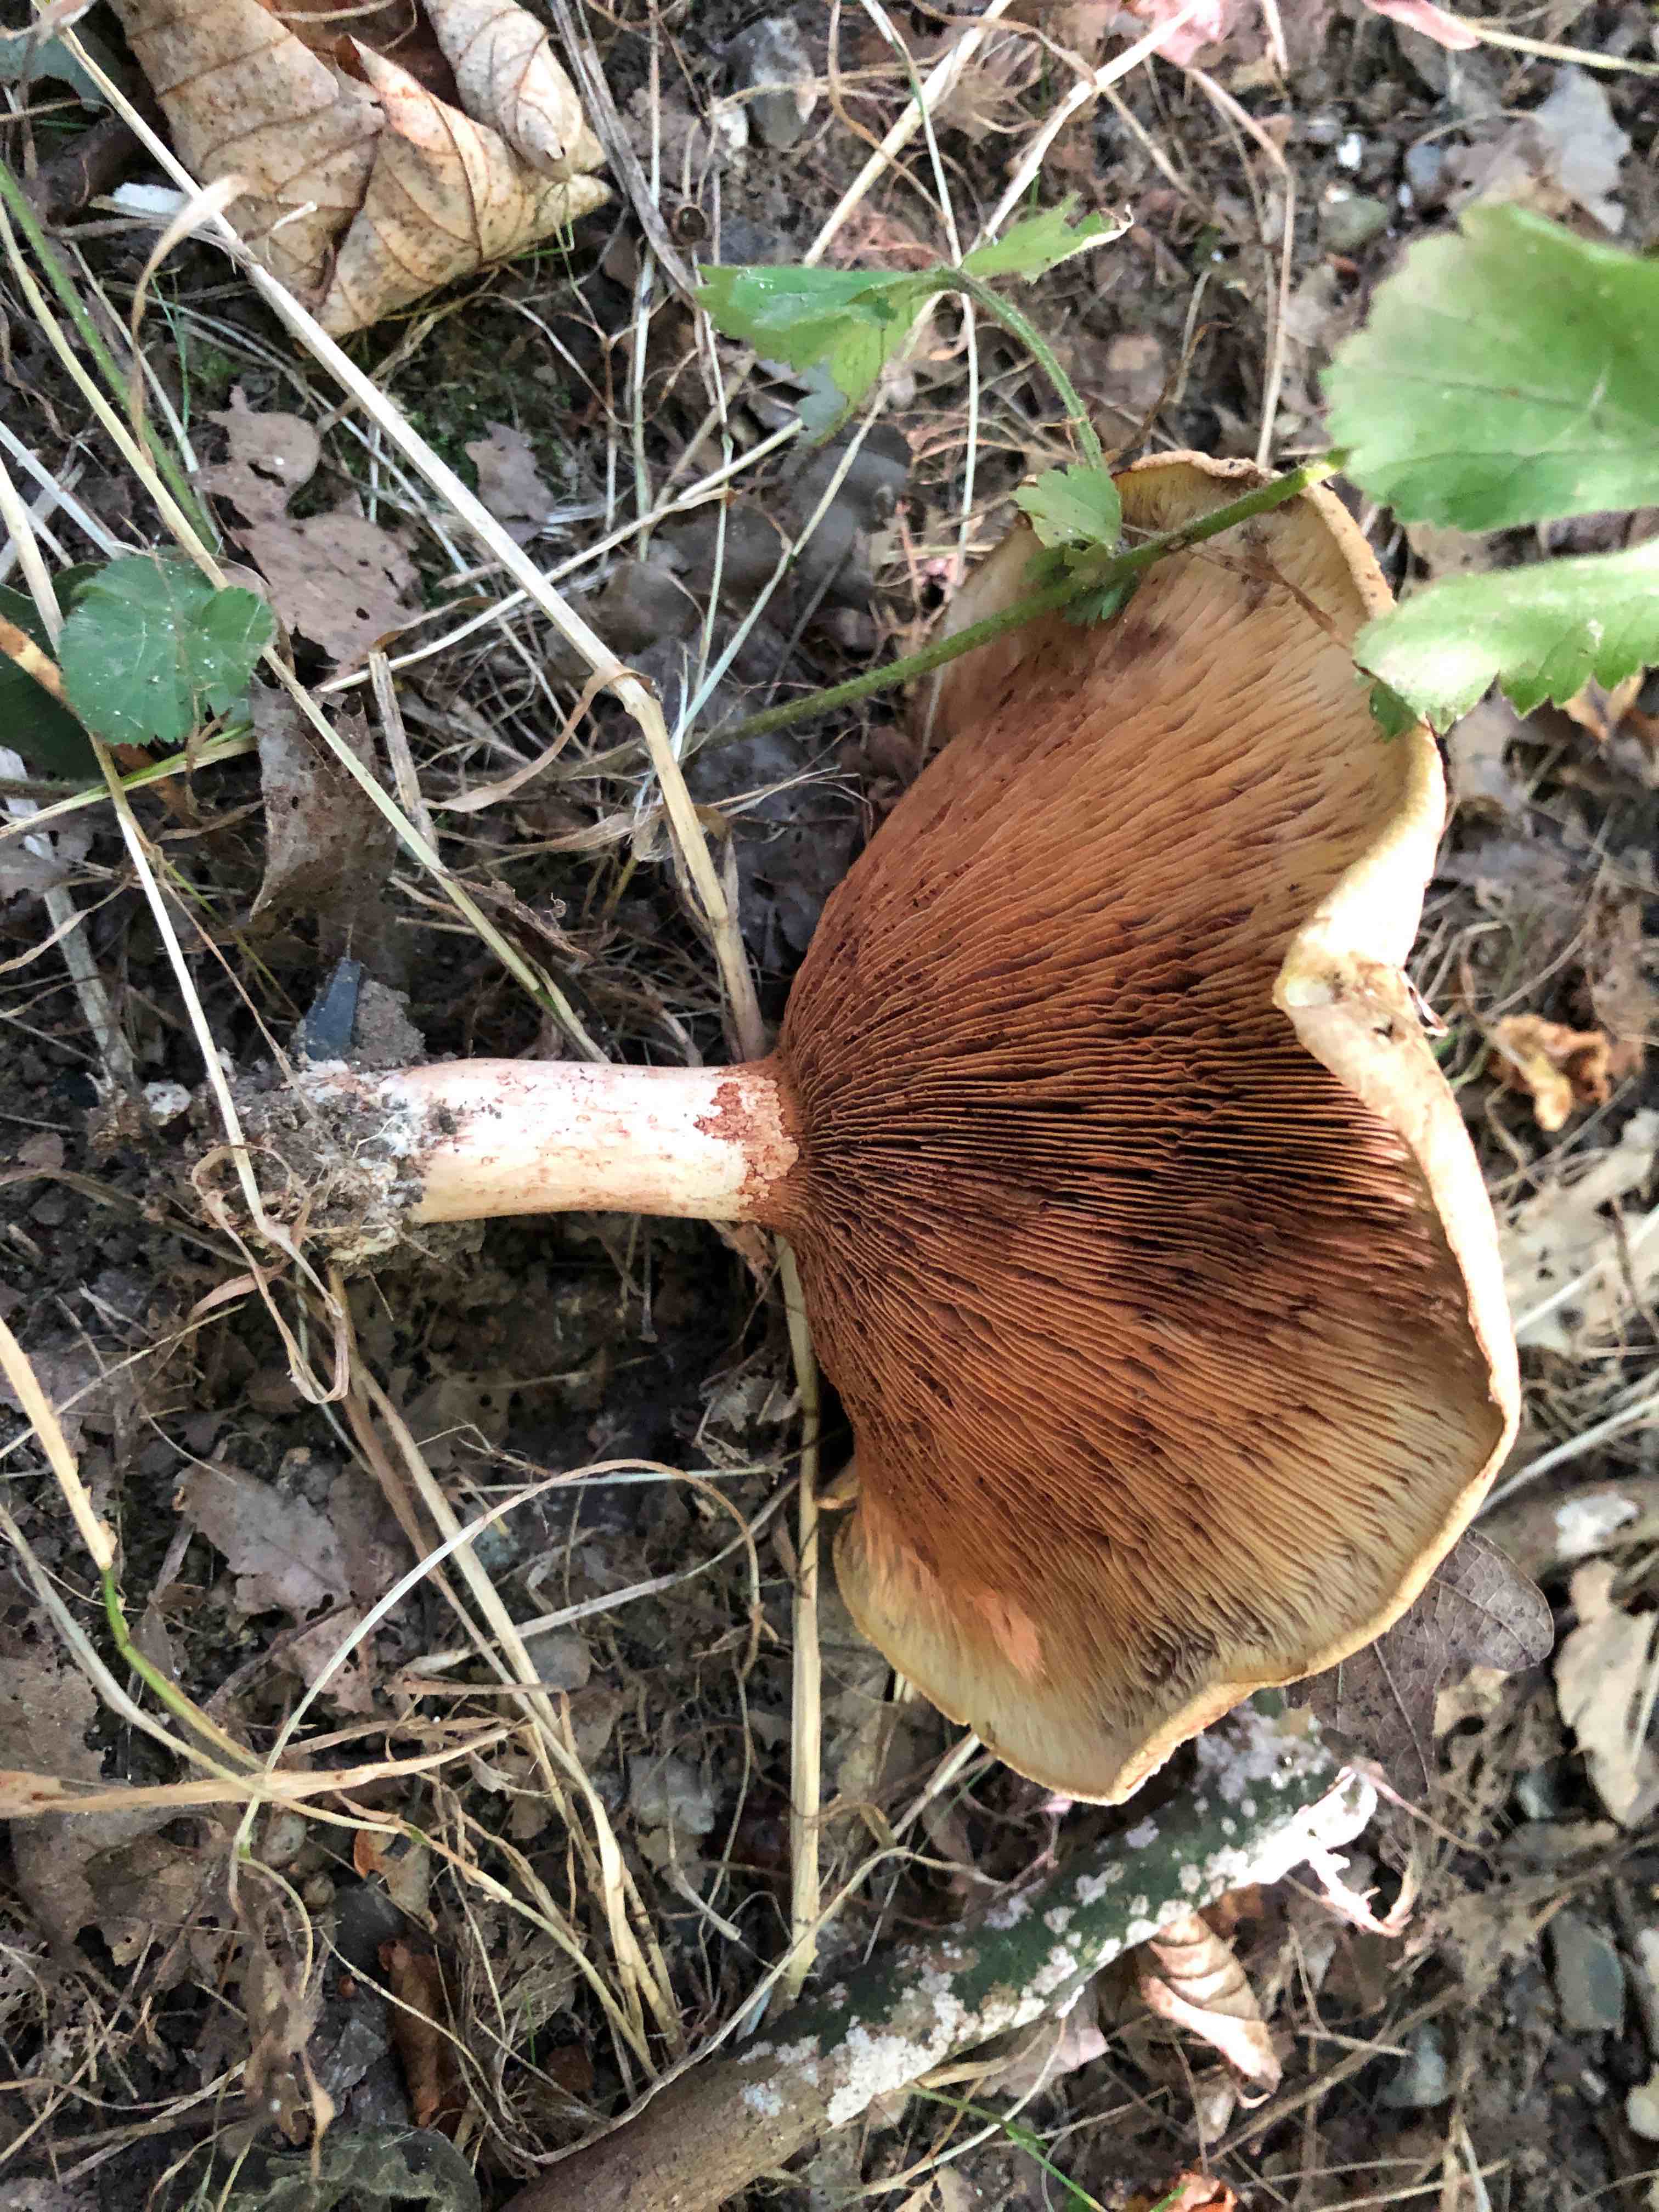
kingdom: Fungi
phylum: Basidiomycota
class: Agaricomycetes
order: Boletales
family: Paxillaceae
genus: Paxillus
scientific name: Paxillus
